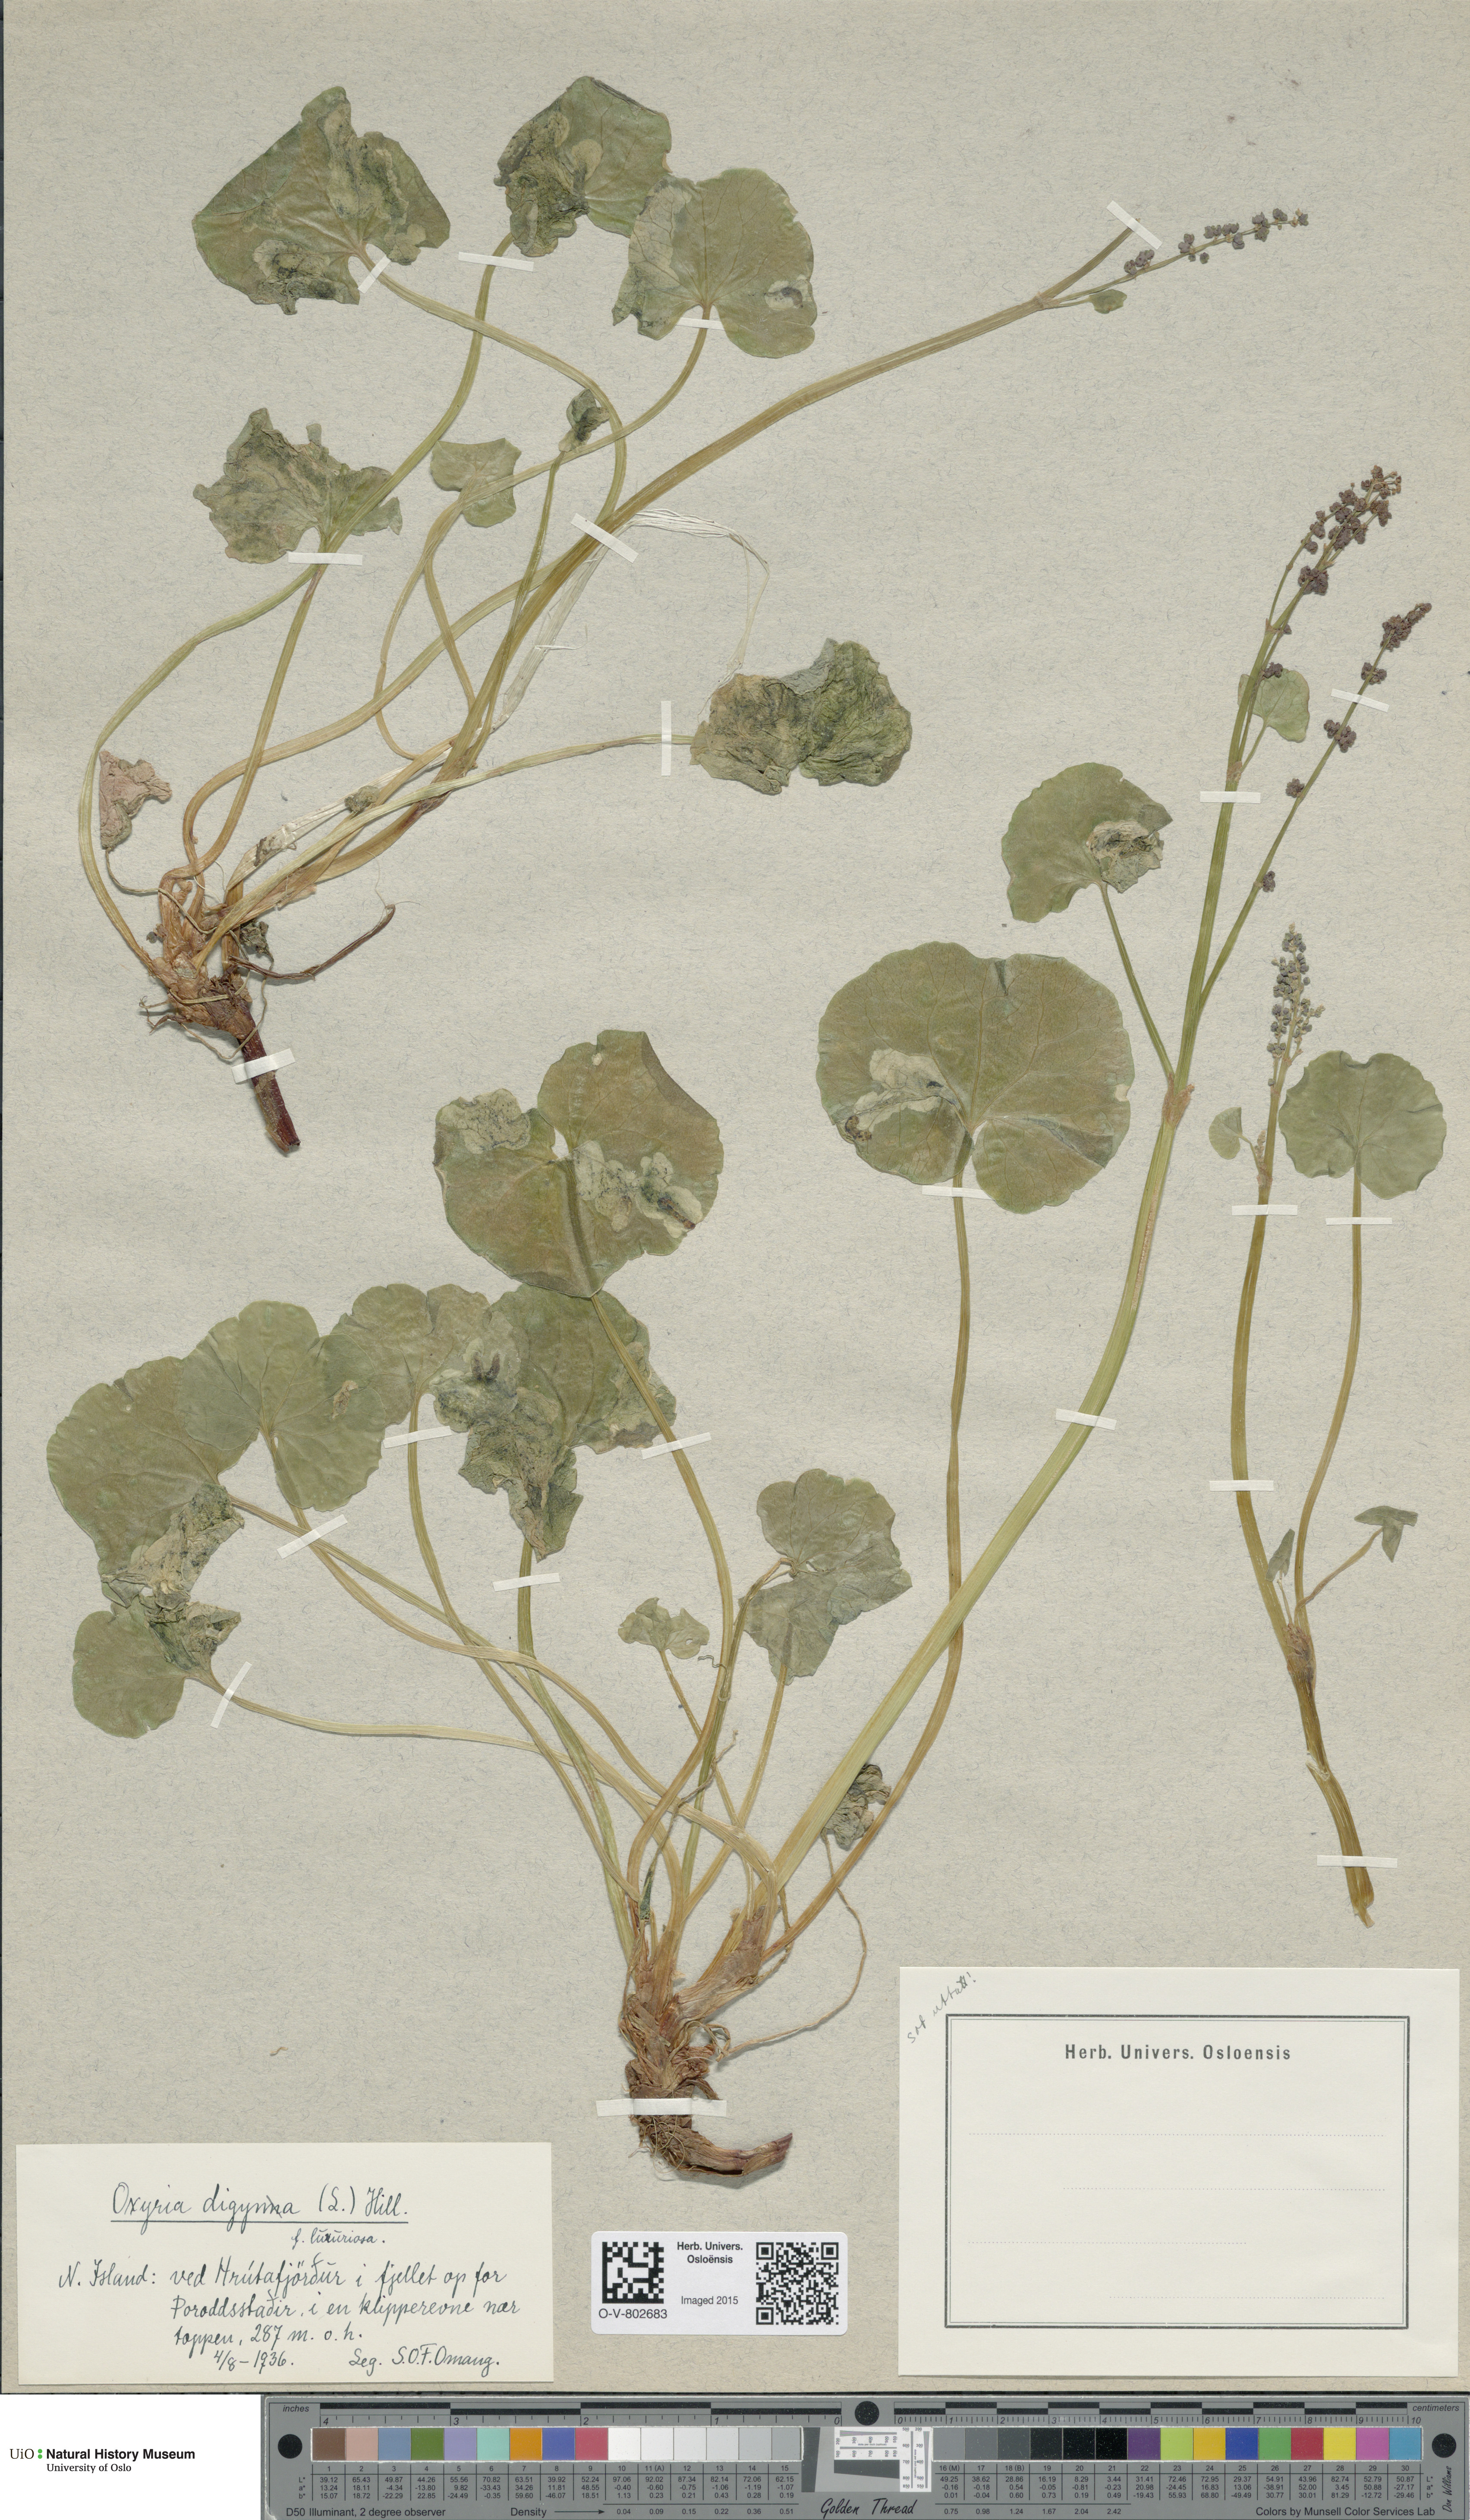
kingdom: Plantae
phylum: Tracheophyta
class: Magnoliopsida
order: Caryophyllales
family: Polygonaceae
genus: Oxyria
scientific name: Oxyria digyna
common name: Alpine mountain-sorrel
